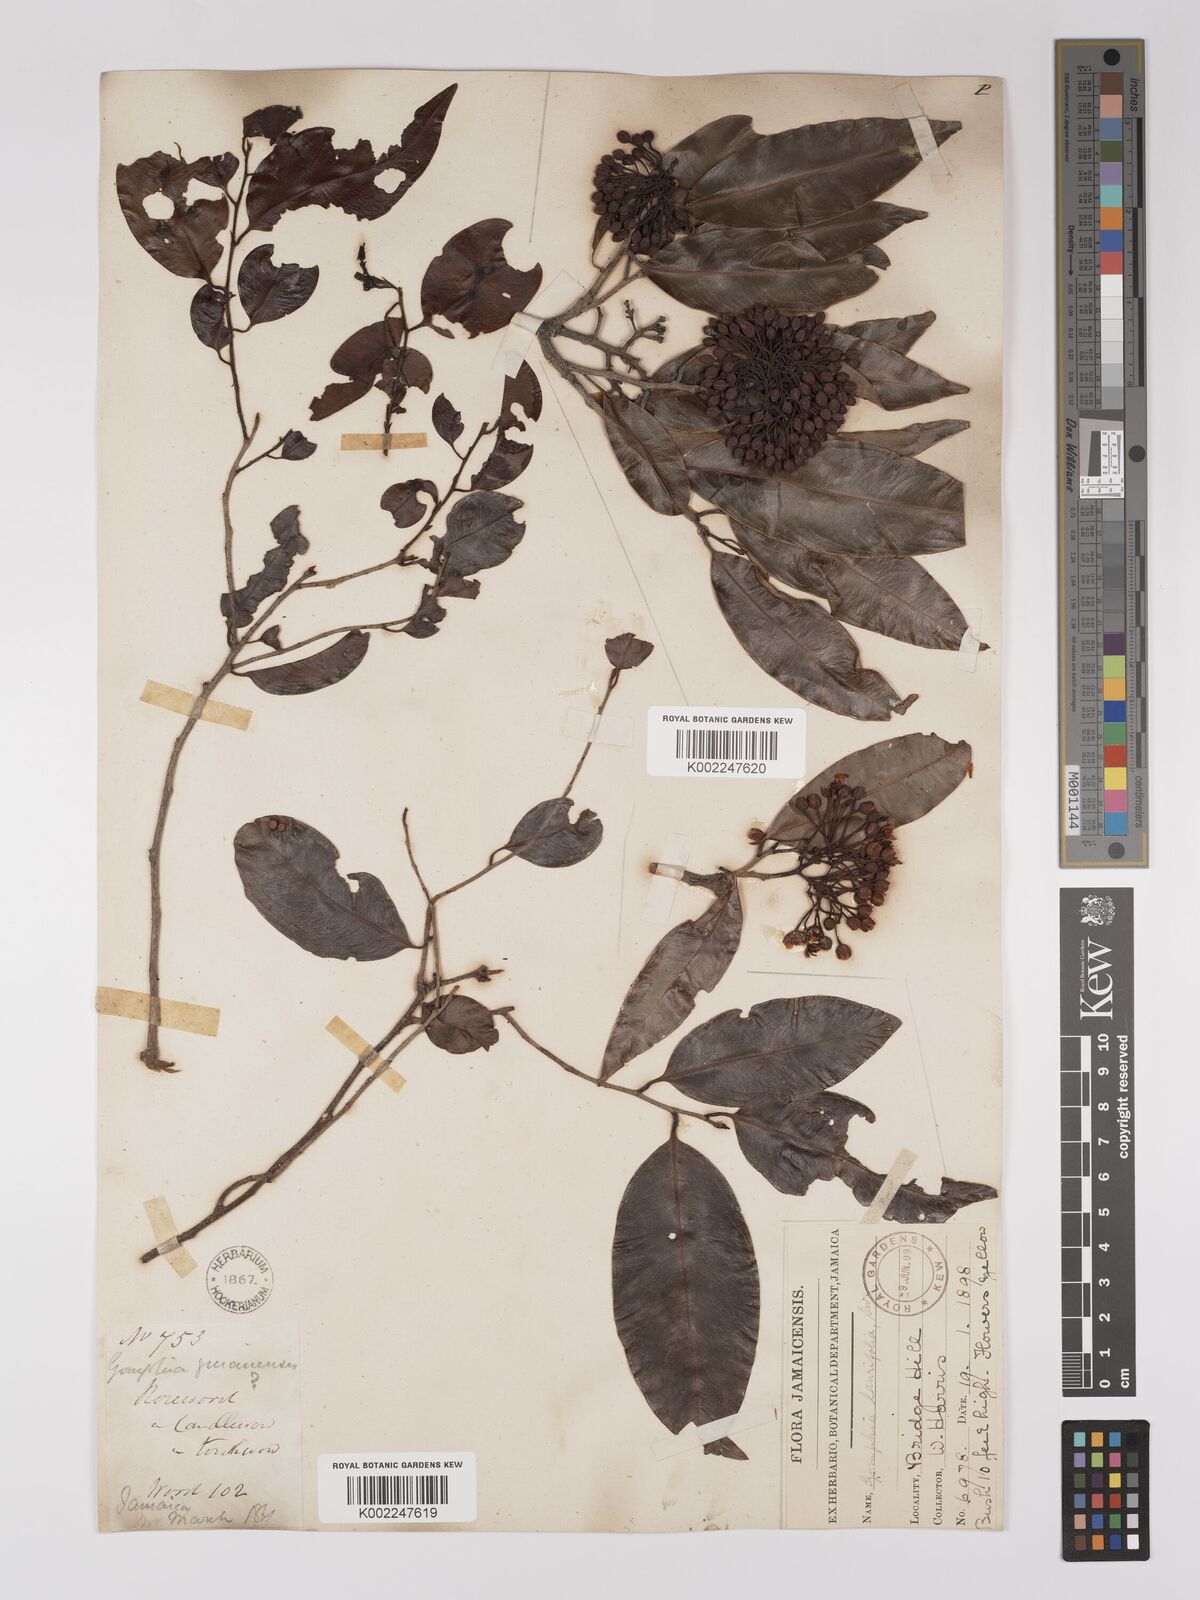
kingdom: Plantae
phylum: Tracheophyta
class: Magnoliopsida
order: Malpighiales
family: Ochnaceae
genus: Ouratea
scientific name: Ouratea laurifolia
